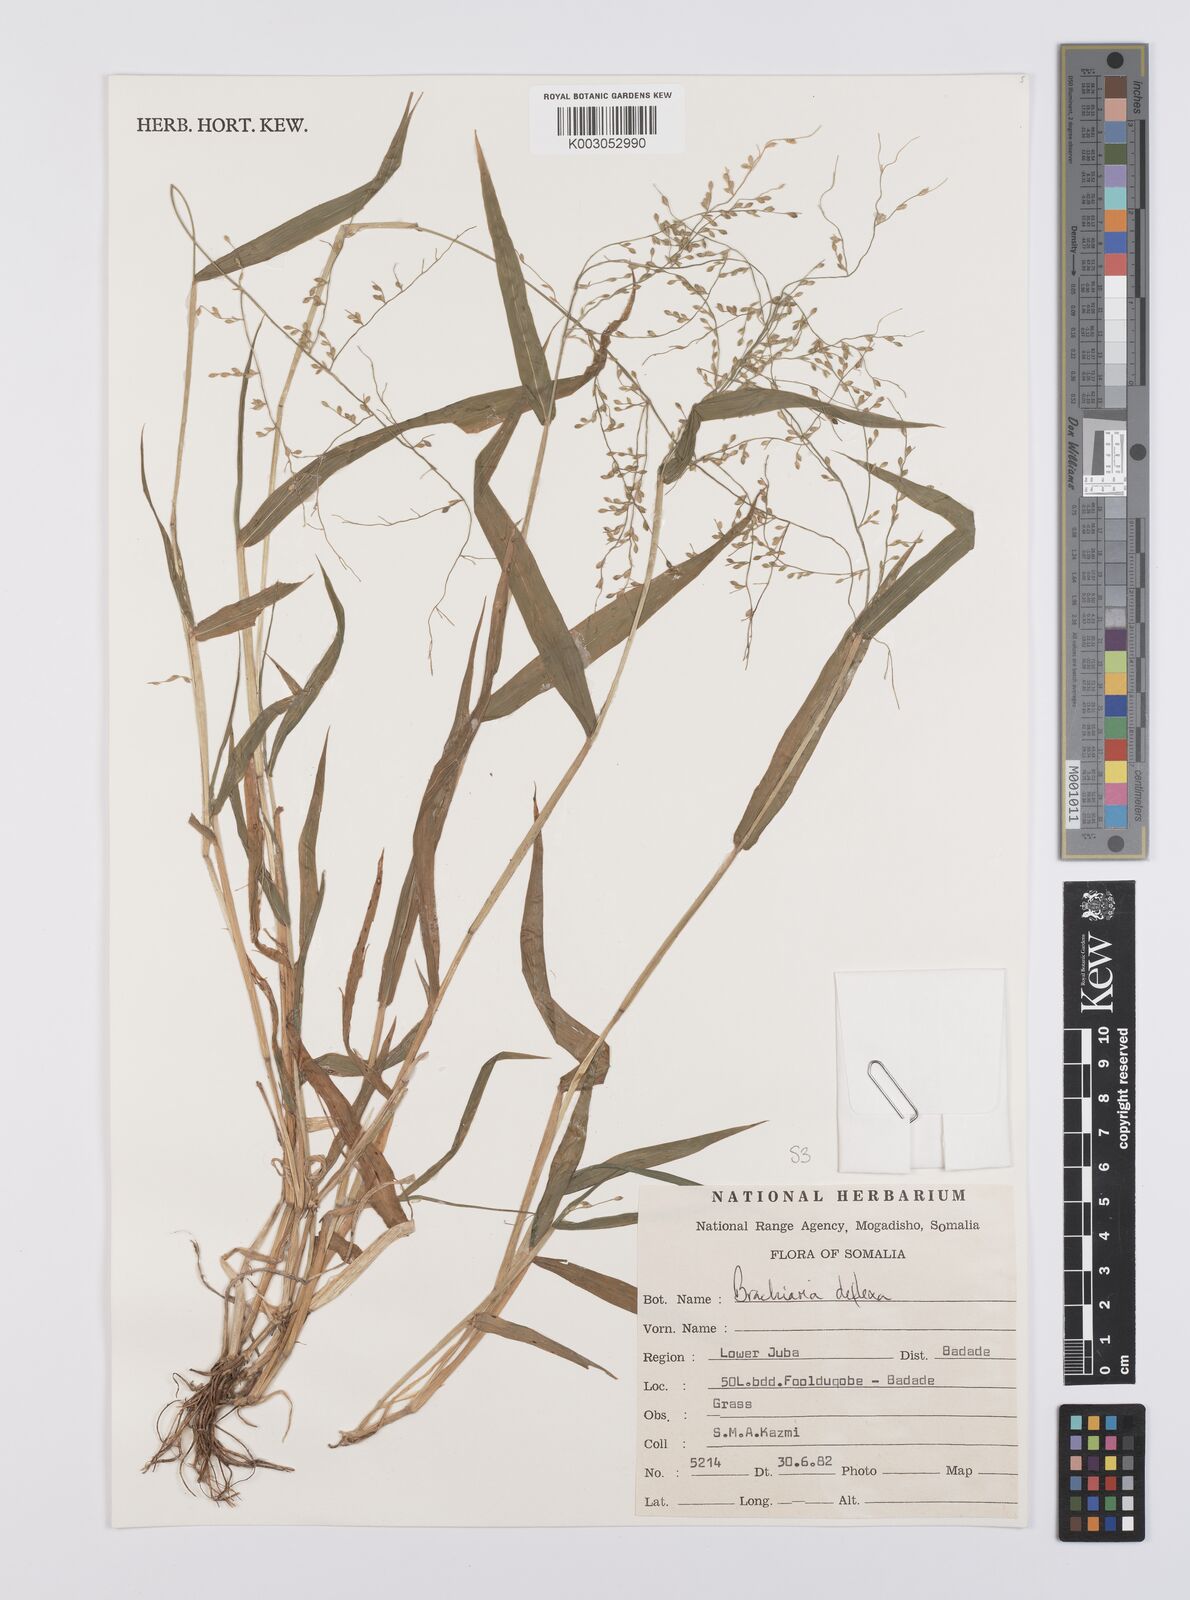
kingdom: Plantae
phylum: Tracheophyta
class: Liliopsida
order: Poales
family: Poaceae
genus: Urochloa
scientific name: Urochloa deflexa
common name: Guinea millet
